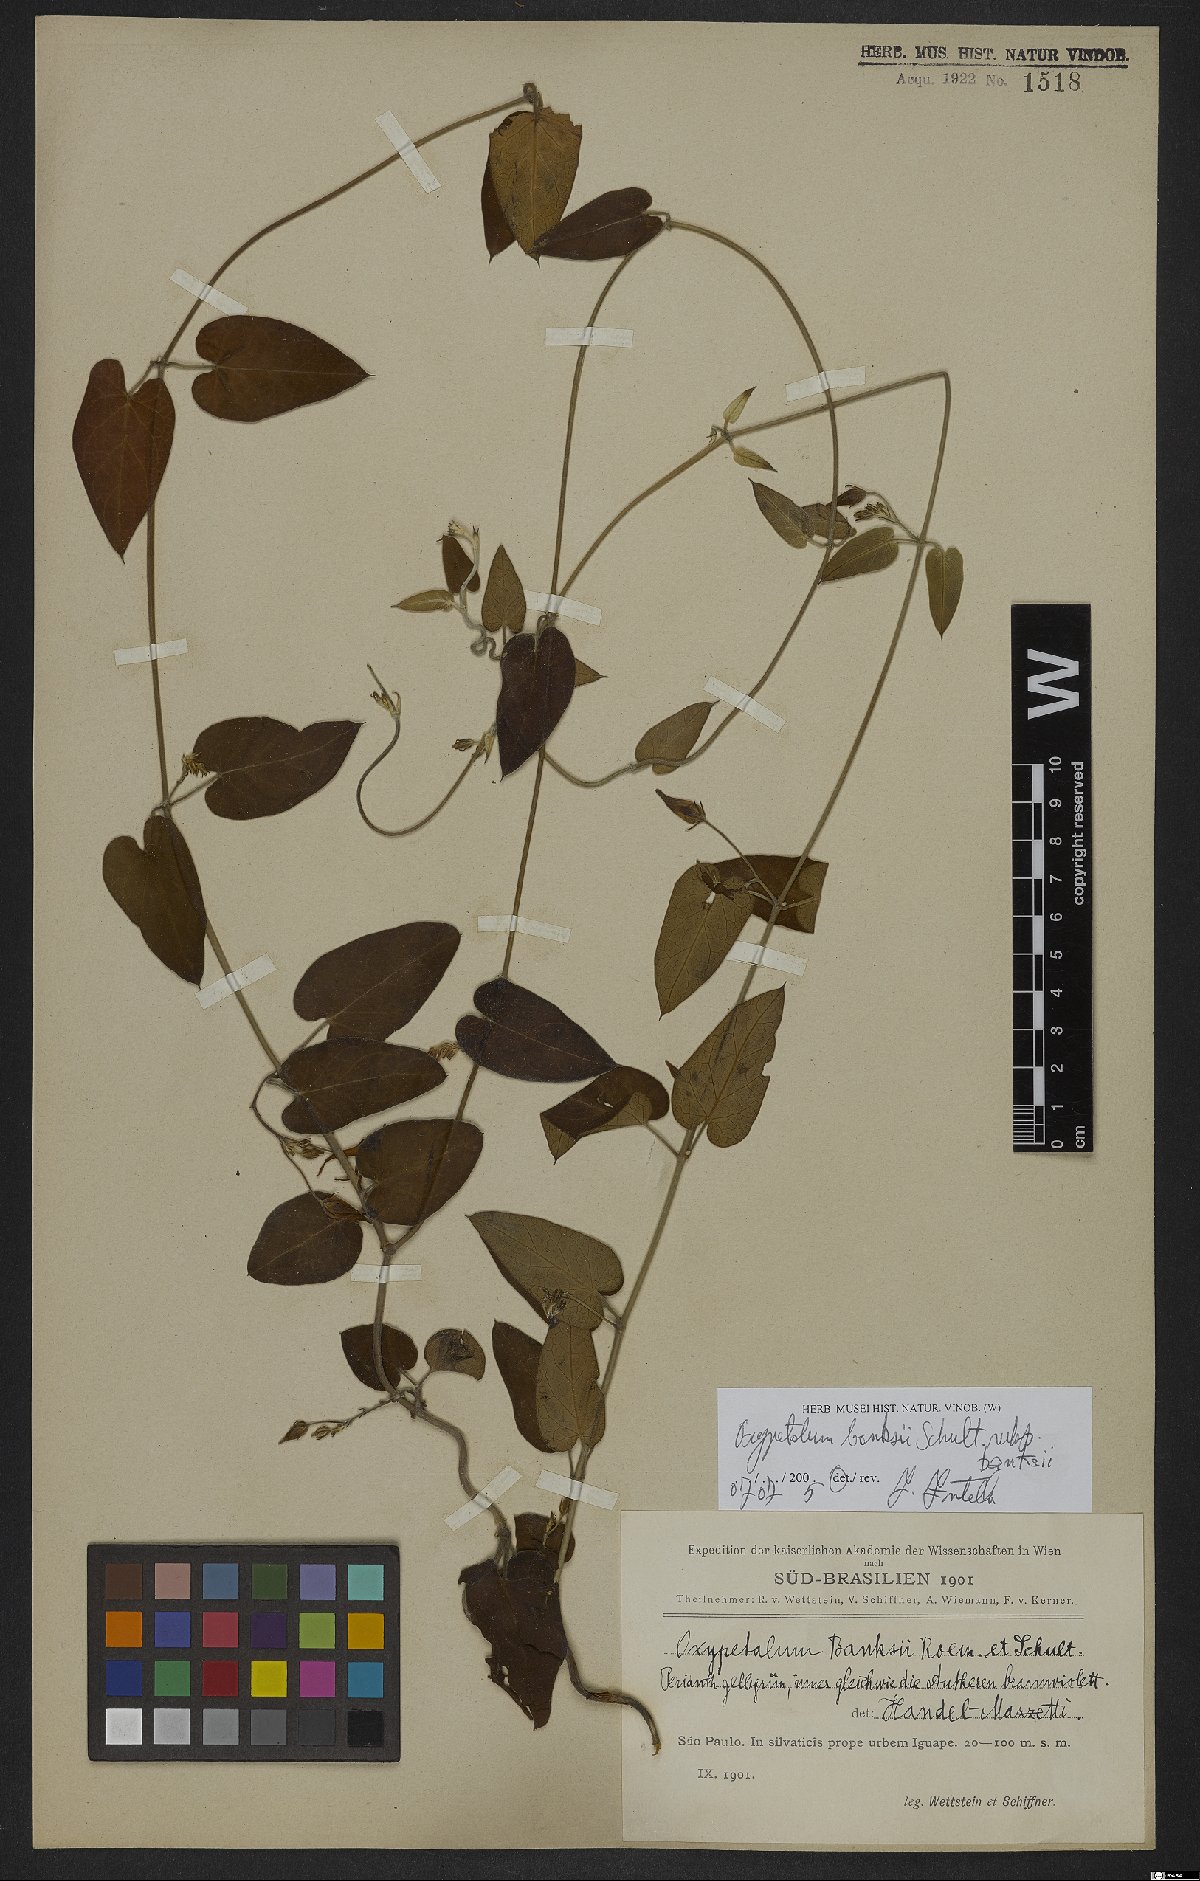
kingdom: Plantae
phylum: Tracheophyta
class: Magnoliopsida
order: Gentianales
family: Apocynaceae
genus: Oxypetalum
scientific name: Oxypetalum banksii
